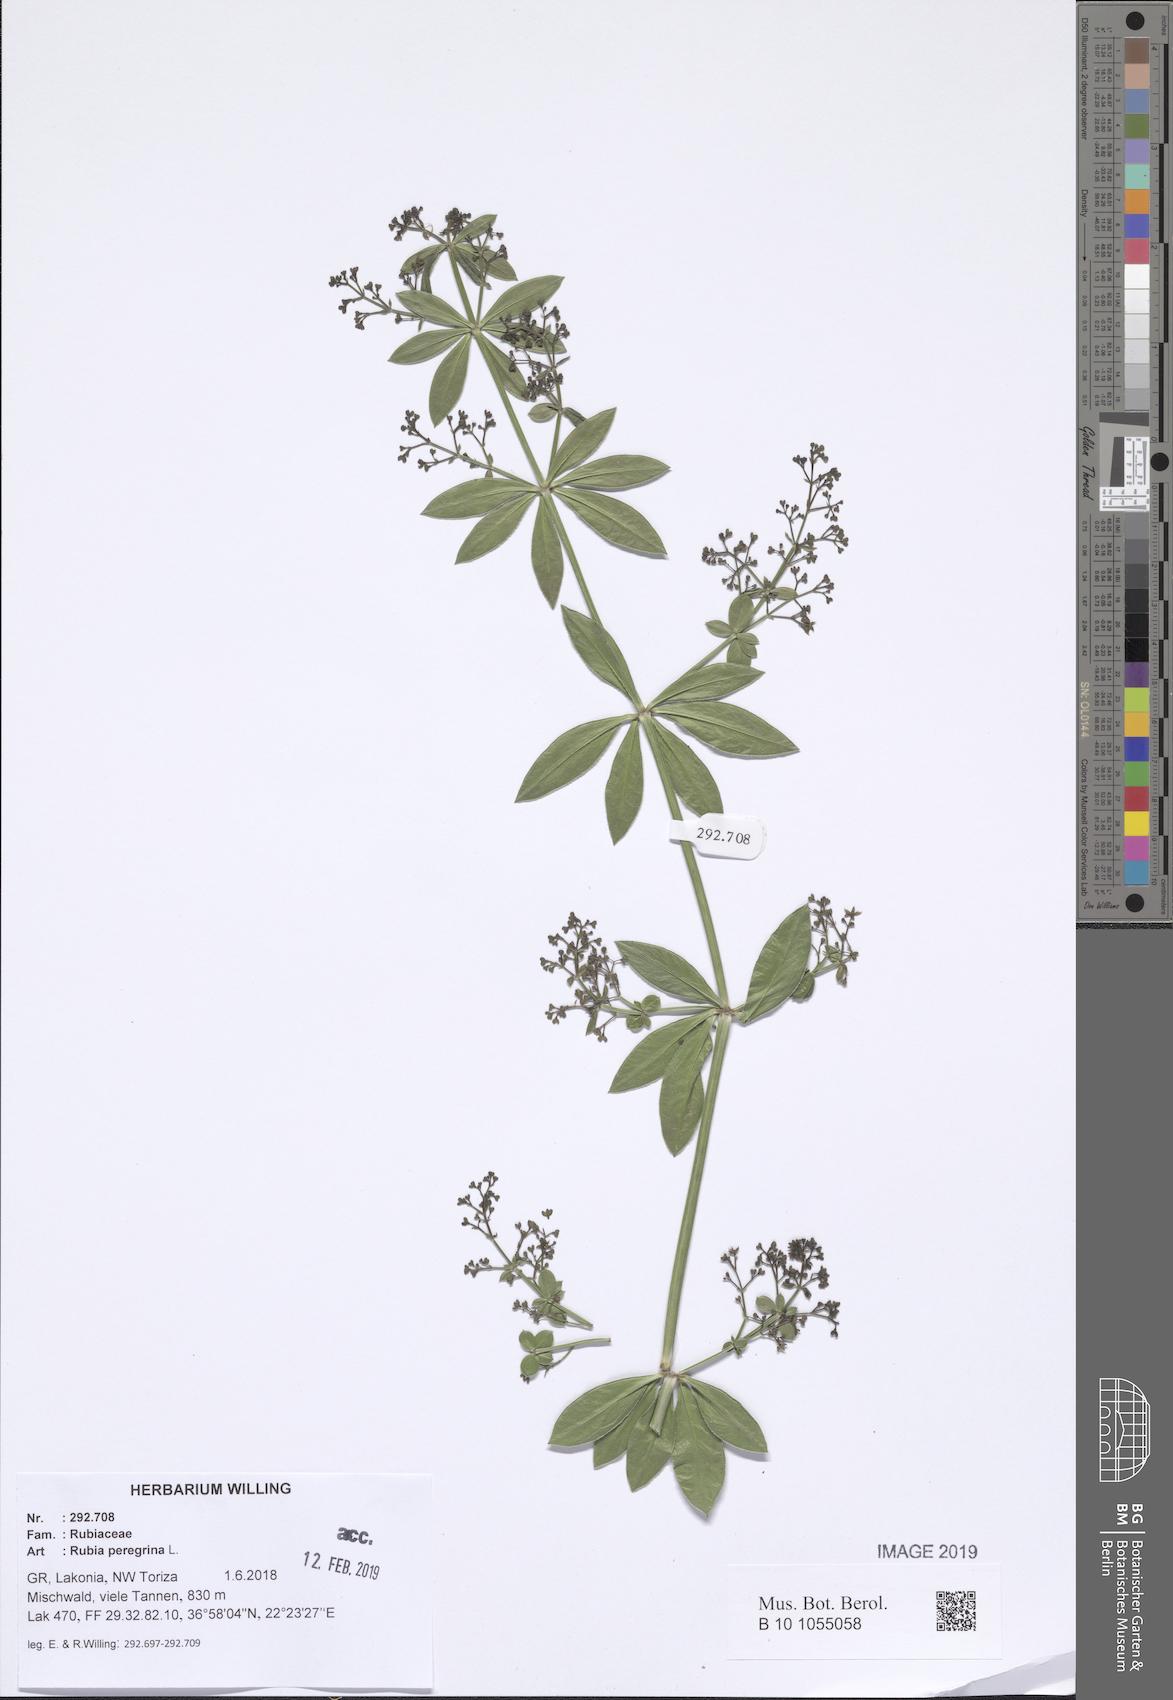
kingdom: Plantae
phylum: Tracheophyta
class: Magnoliopsida
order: Gentianales
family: Rubiaceae
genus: Rubia
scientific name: Rubia peregrina
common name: Wild madder
